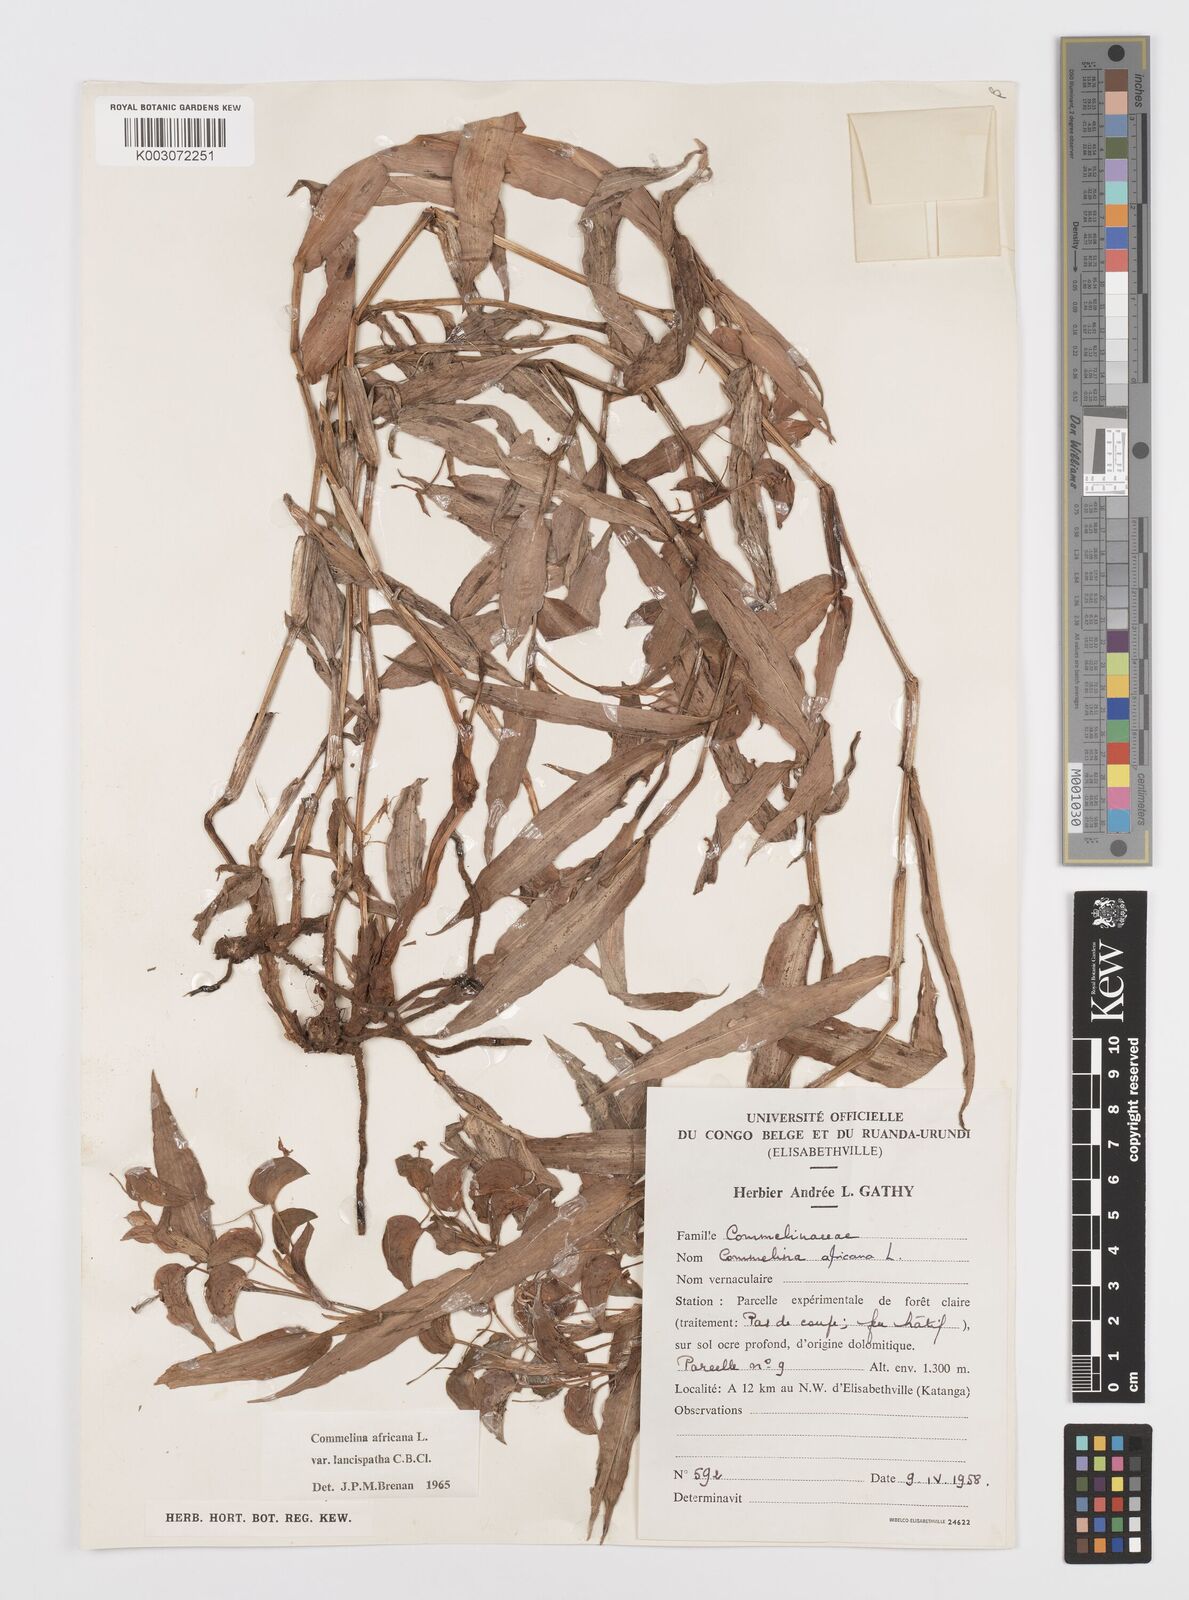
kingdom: Plantae
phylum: Tracheophyta
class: Liliopsida
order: Commelinales
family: Commelinaceae
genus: Commelina
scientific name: Commelina africana
